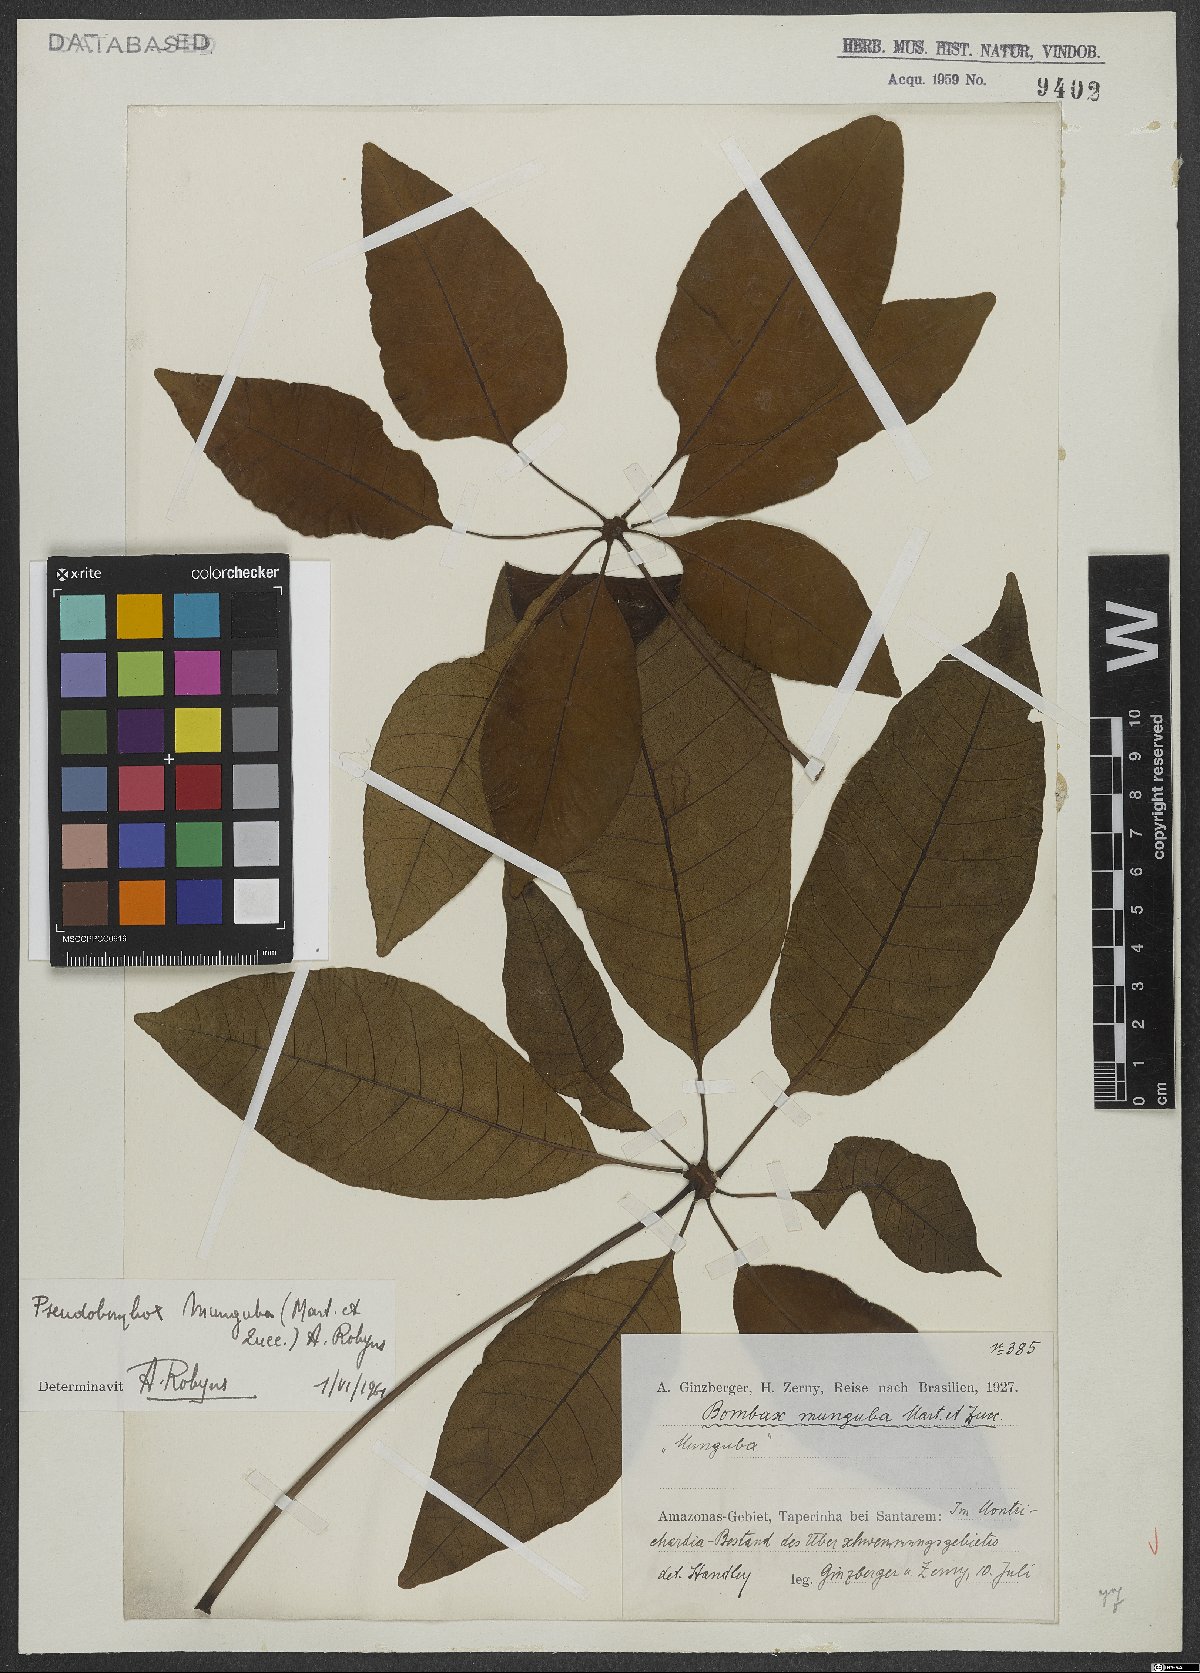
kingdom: Plantae
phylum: Tracheophyta
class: Magnoliopsida
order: Malvales
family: Malvaceae
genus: Pseudobombax
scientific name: Pseudobombax munguba
